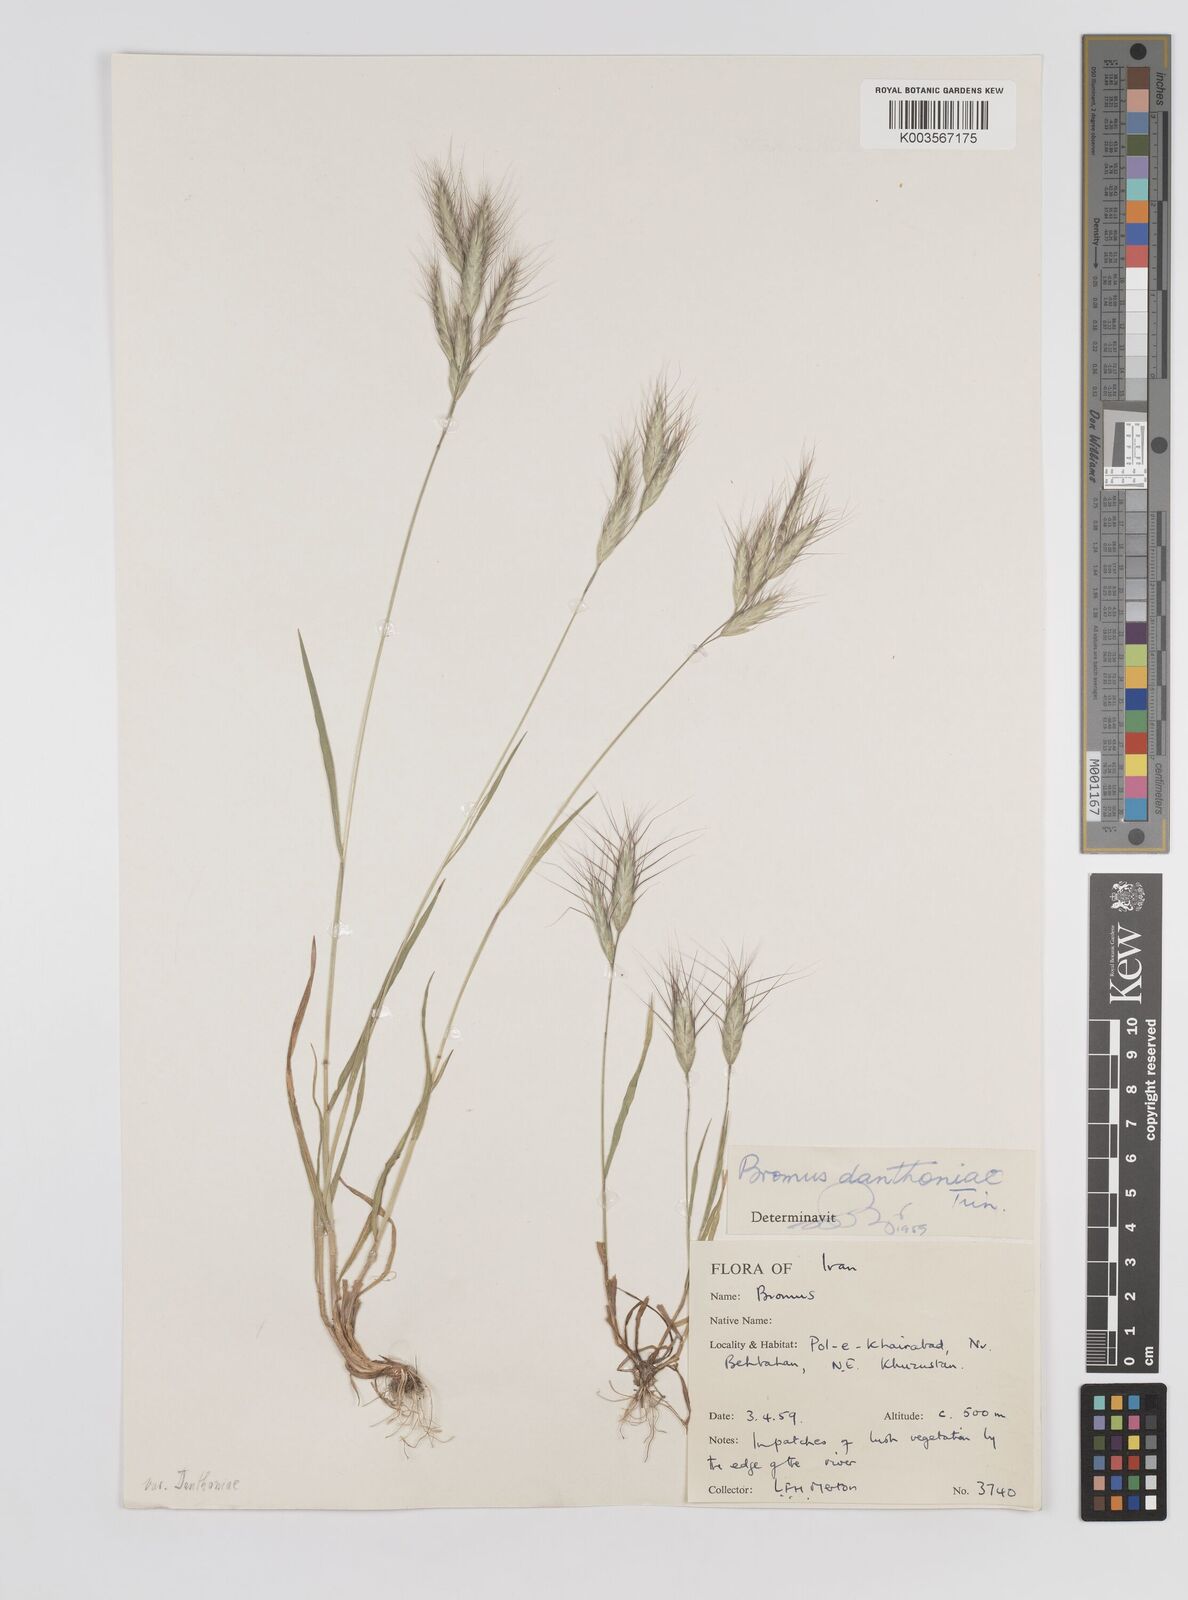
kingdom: Plantae
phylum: Tracheophyta
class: Liliopsida
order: Poales
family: Poaceae
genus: Bromus
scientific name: Bromus danthoniae
